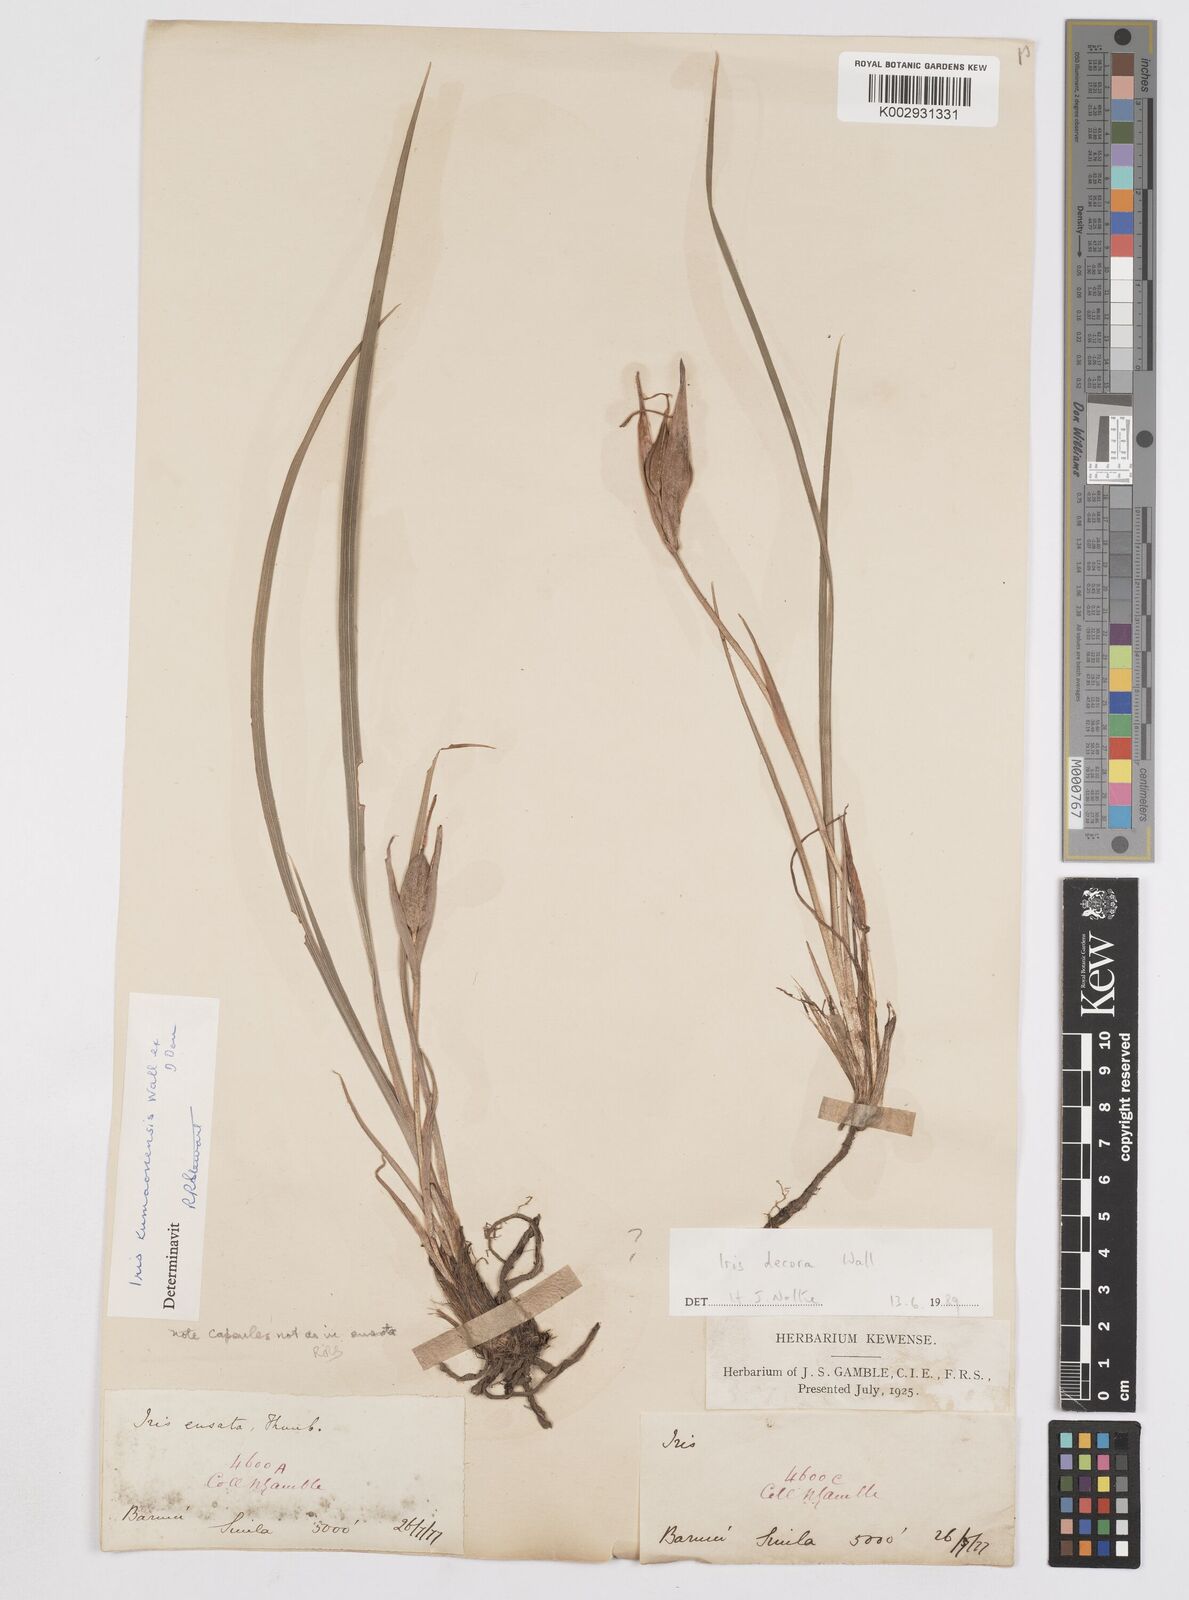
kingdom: Plantae
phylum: Tracheophyta
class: Liliopsida
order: Asparagales
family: Iridaceae
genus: Iris
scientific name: Iris decora
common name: Nepal iris
